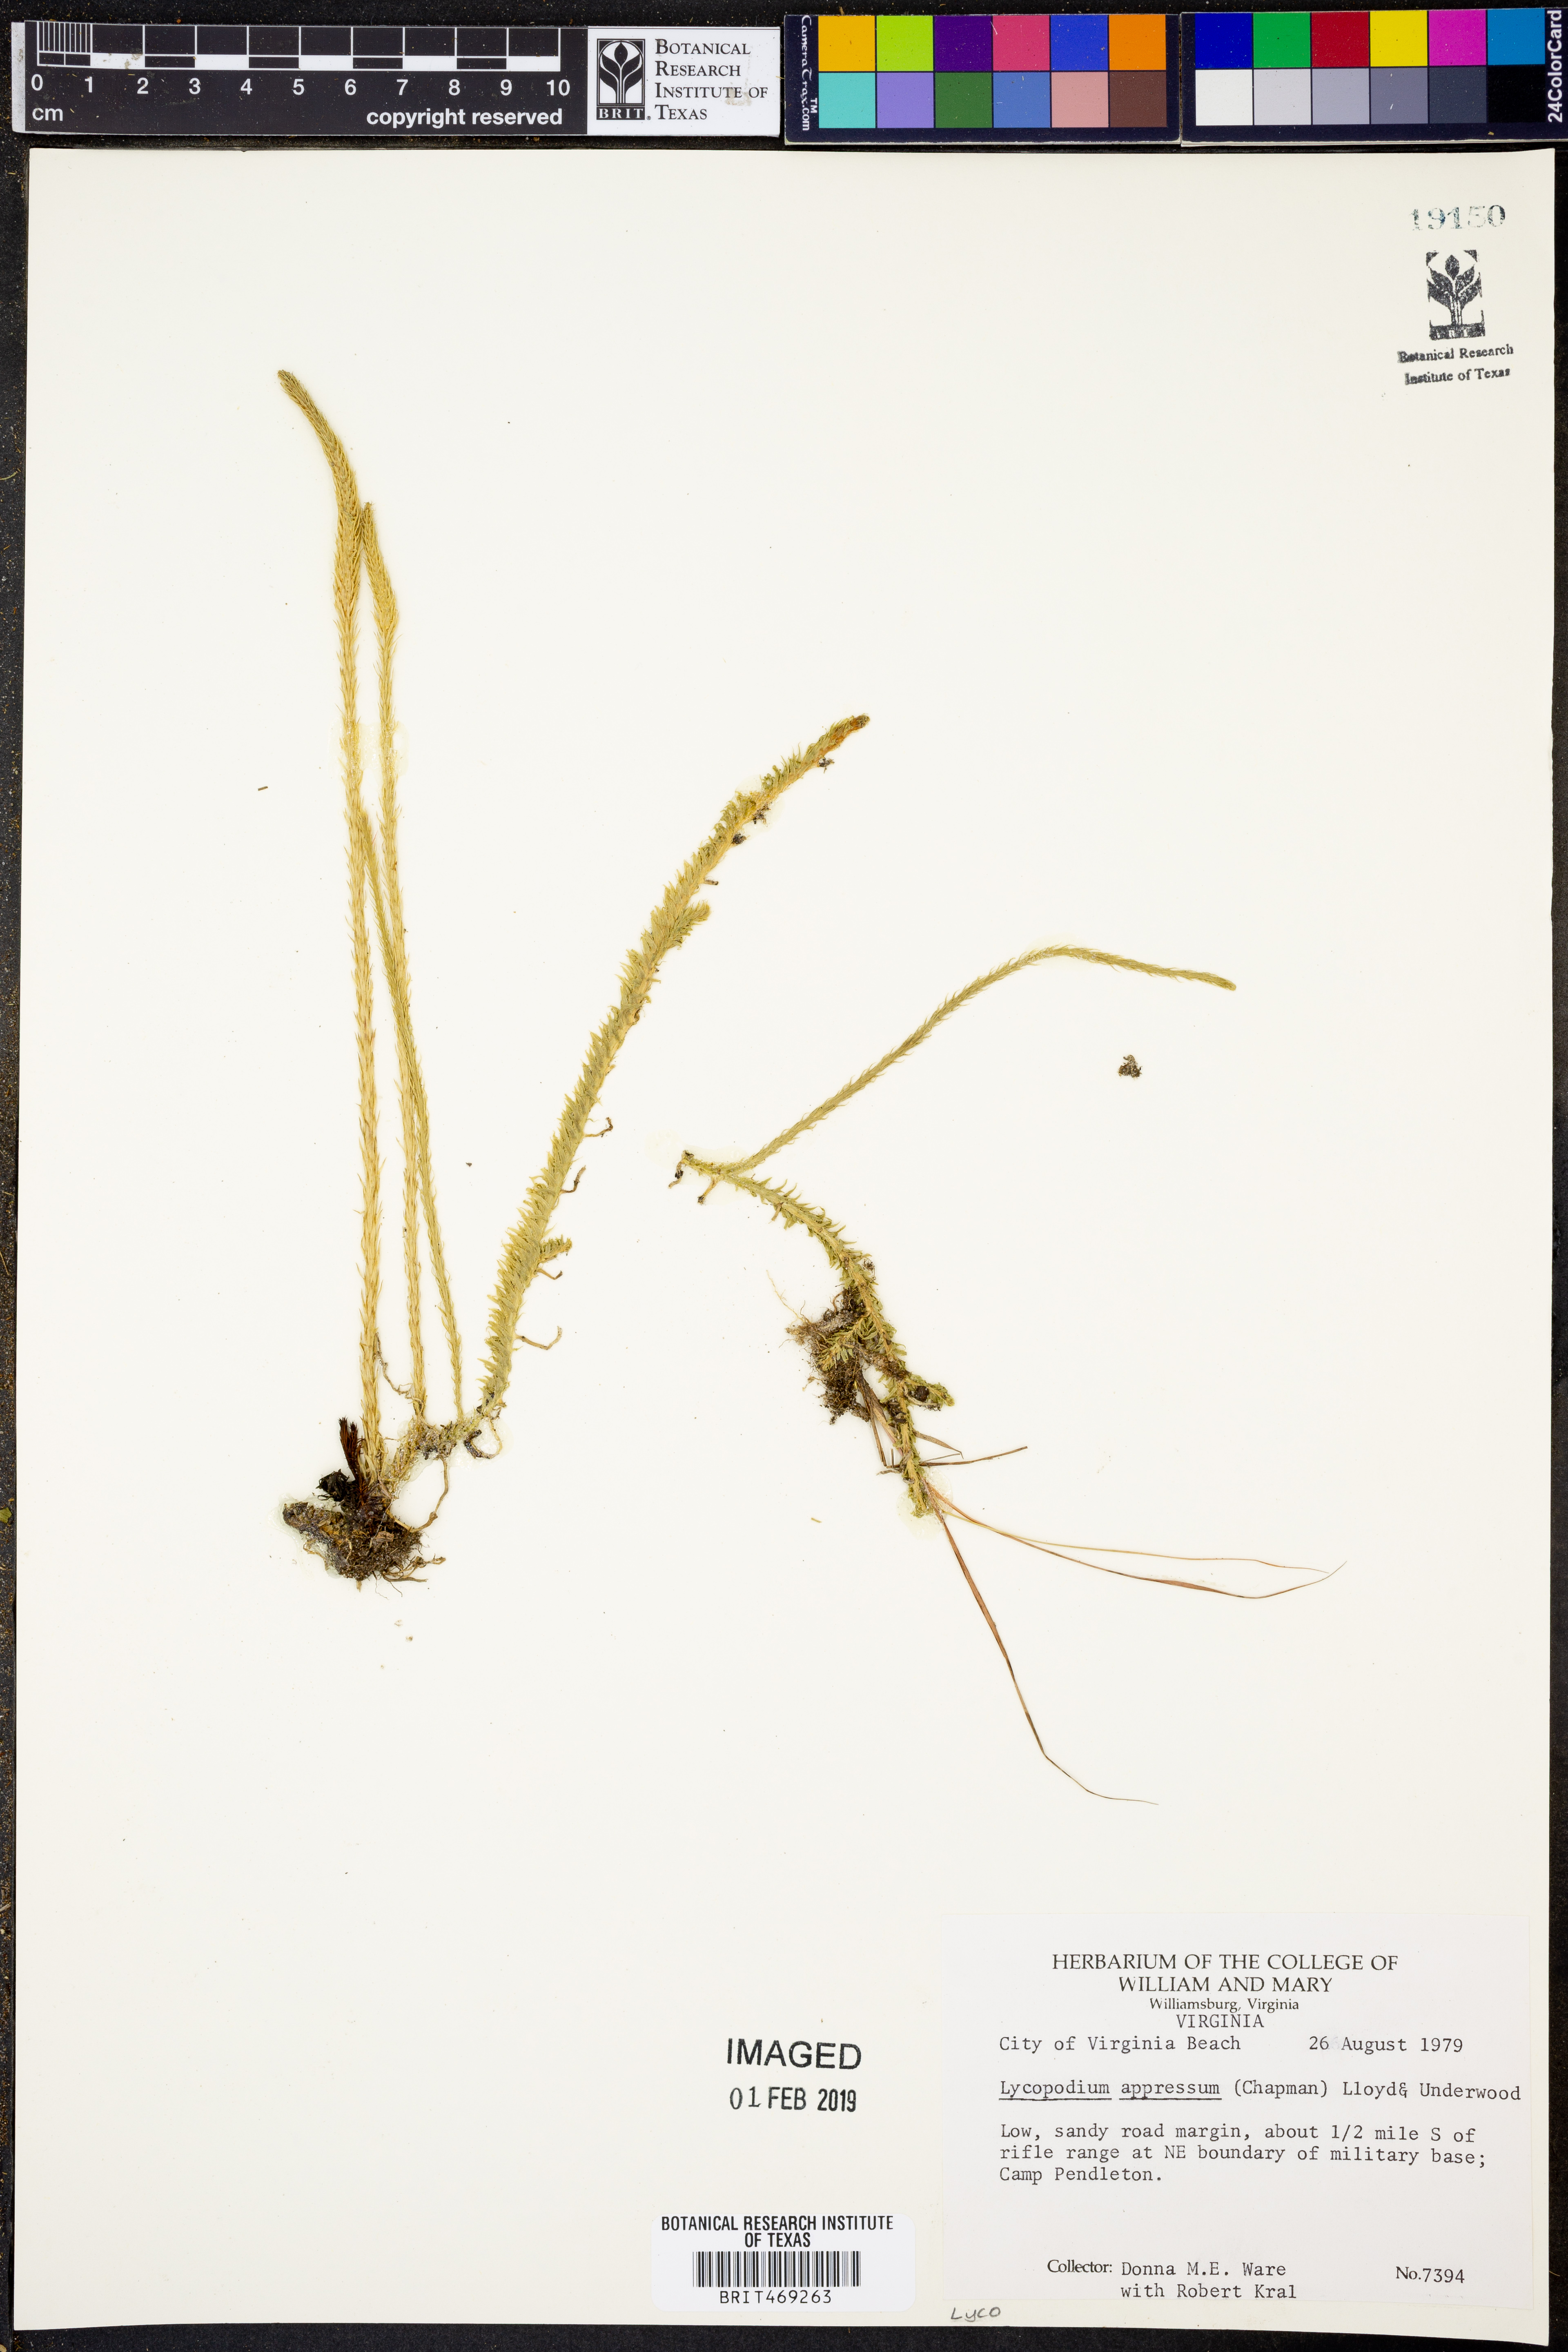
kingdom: Plantae
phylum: Tracheophyta
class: Lycopodiopsida
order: Lycopodiales
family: Lycopodiaceae
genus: Lycopodiella
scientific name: Lycopodiella appressa
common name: Appressed bog clubmoss
